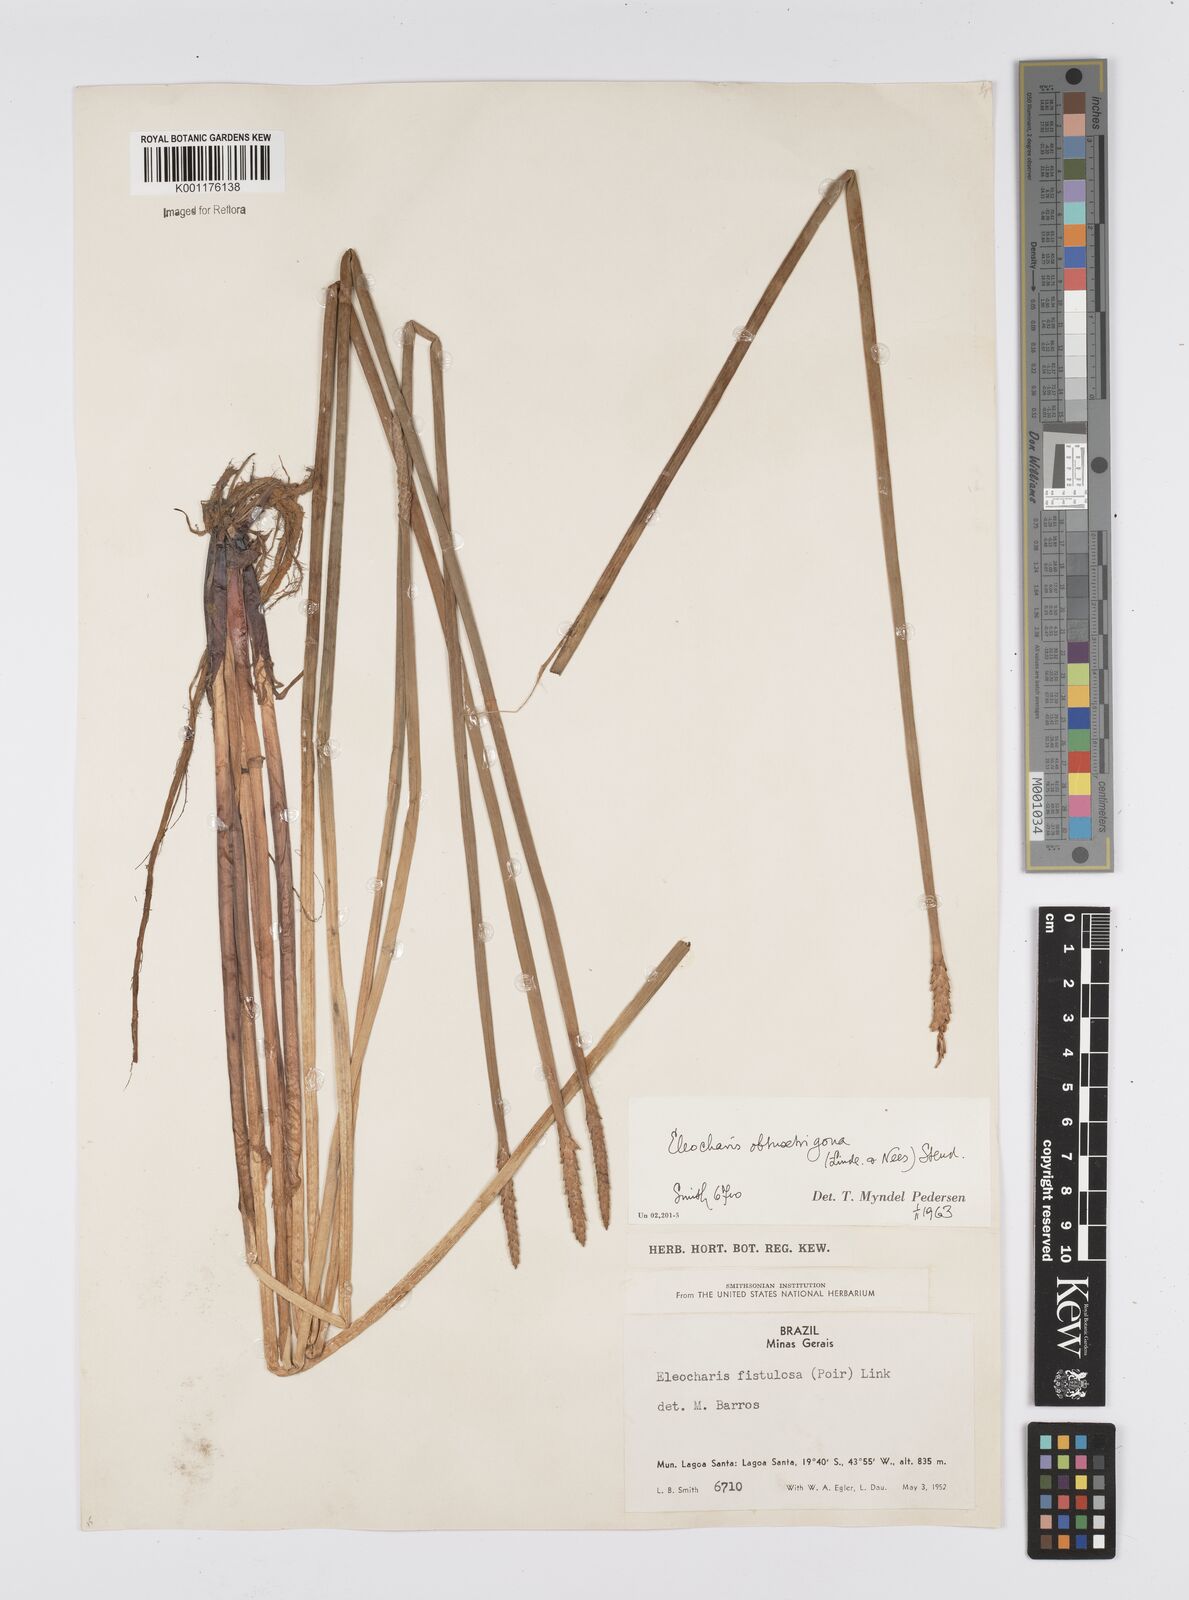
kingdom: Plantae
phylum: Tracheophyta
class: Liliopsida
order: Poales
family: Cyperaceae
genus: Eleocharis
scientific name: Eleocharis acutangula
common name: Acute spikerush
